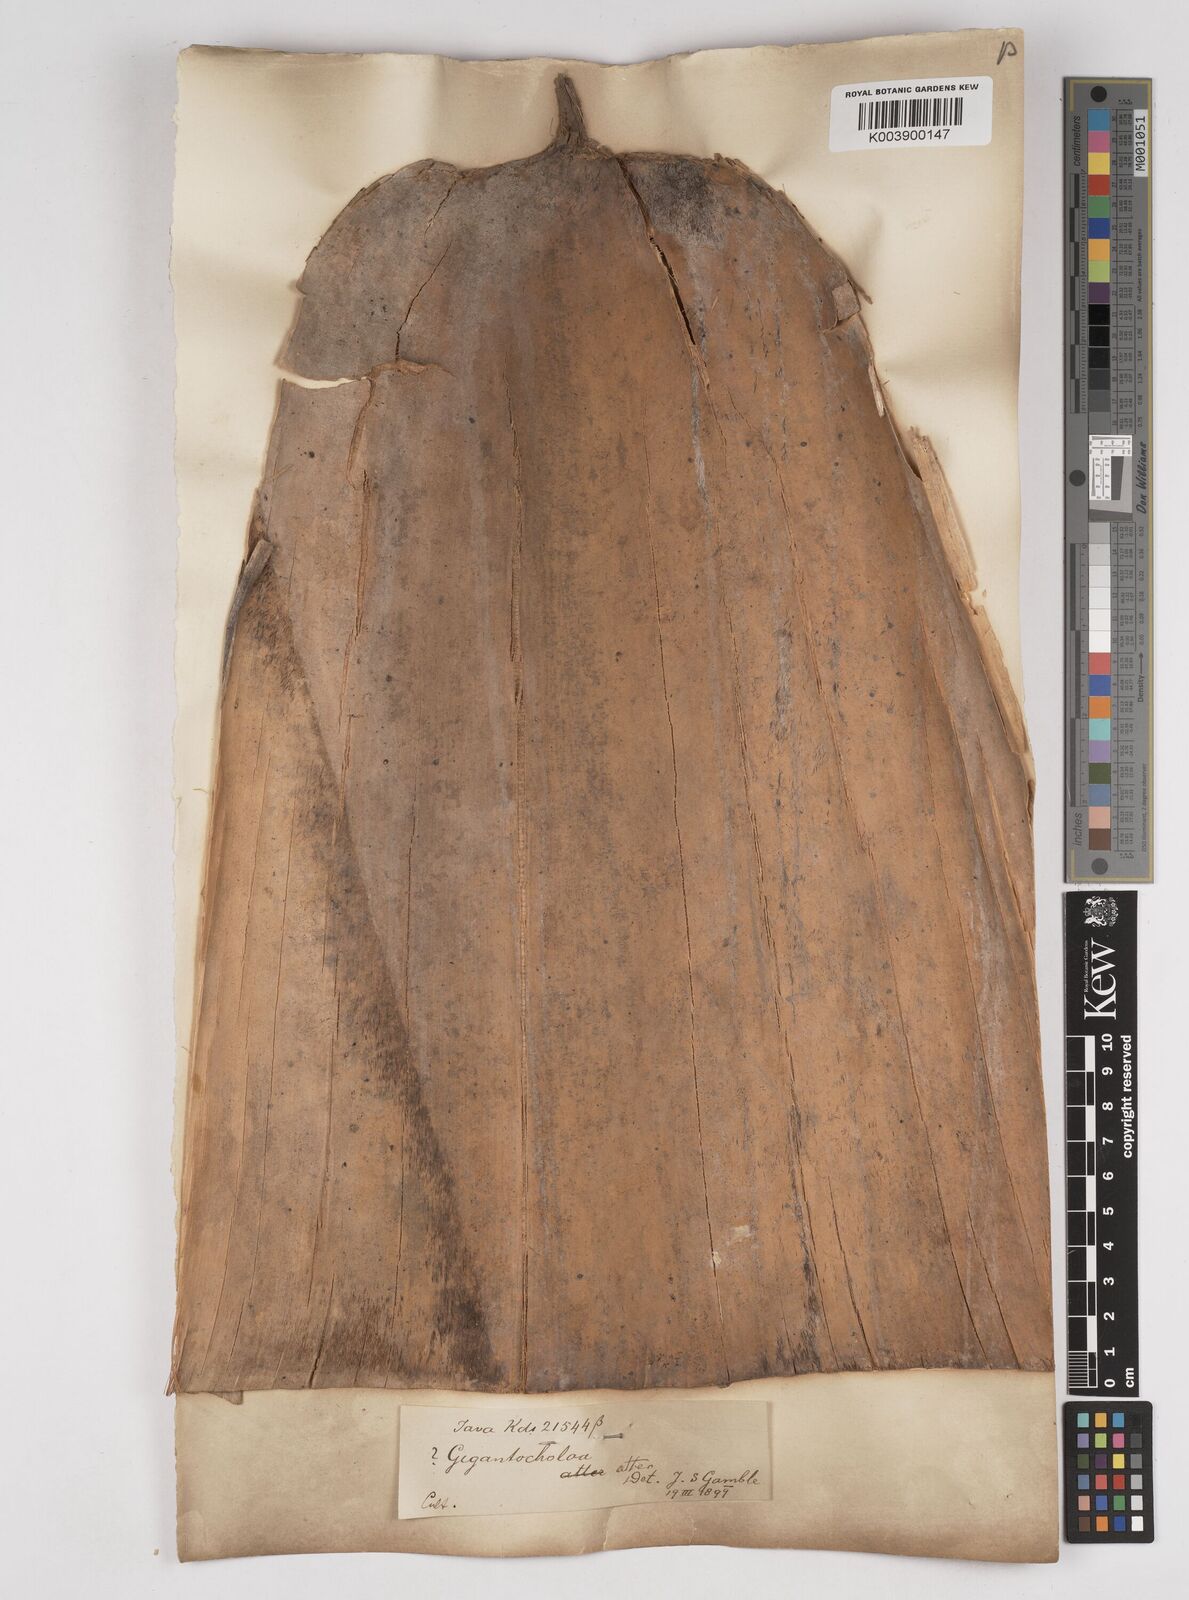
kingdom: Plantae
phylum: Tracheophyta
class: Liliopsida
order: Poales
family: Poaceae
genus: Gigantochloa
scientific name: Gigantochloa atter
